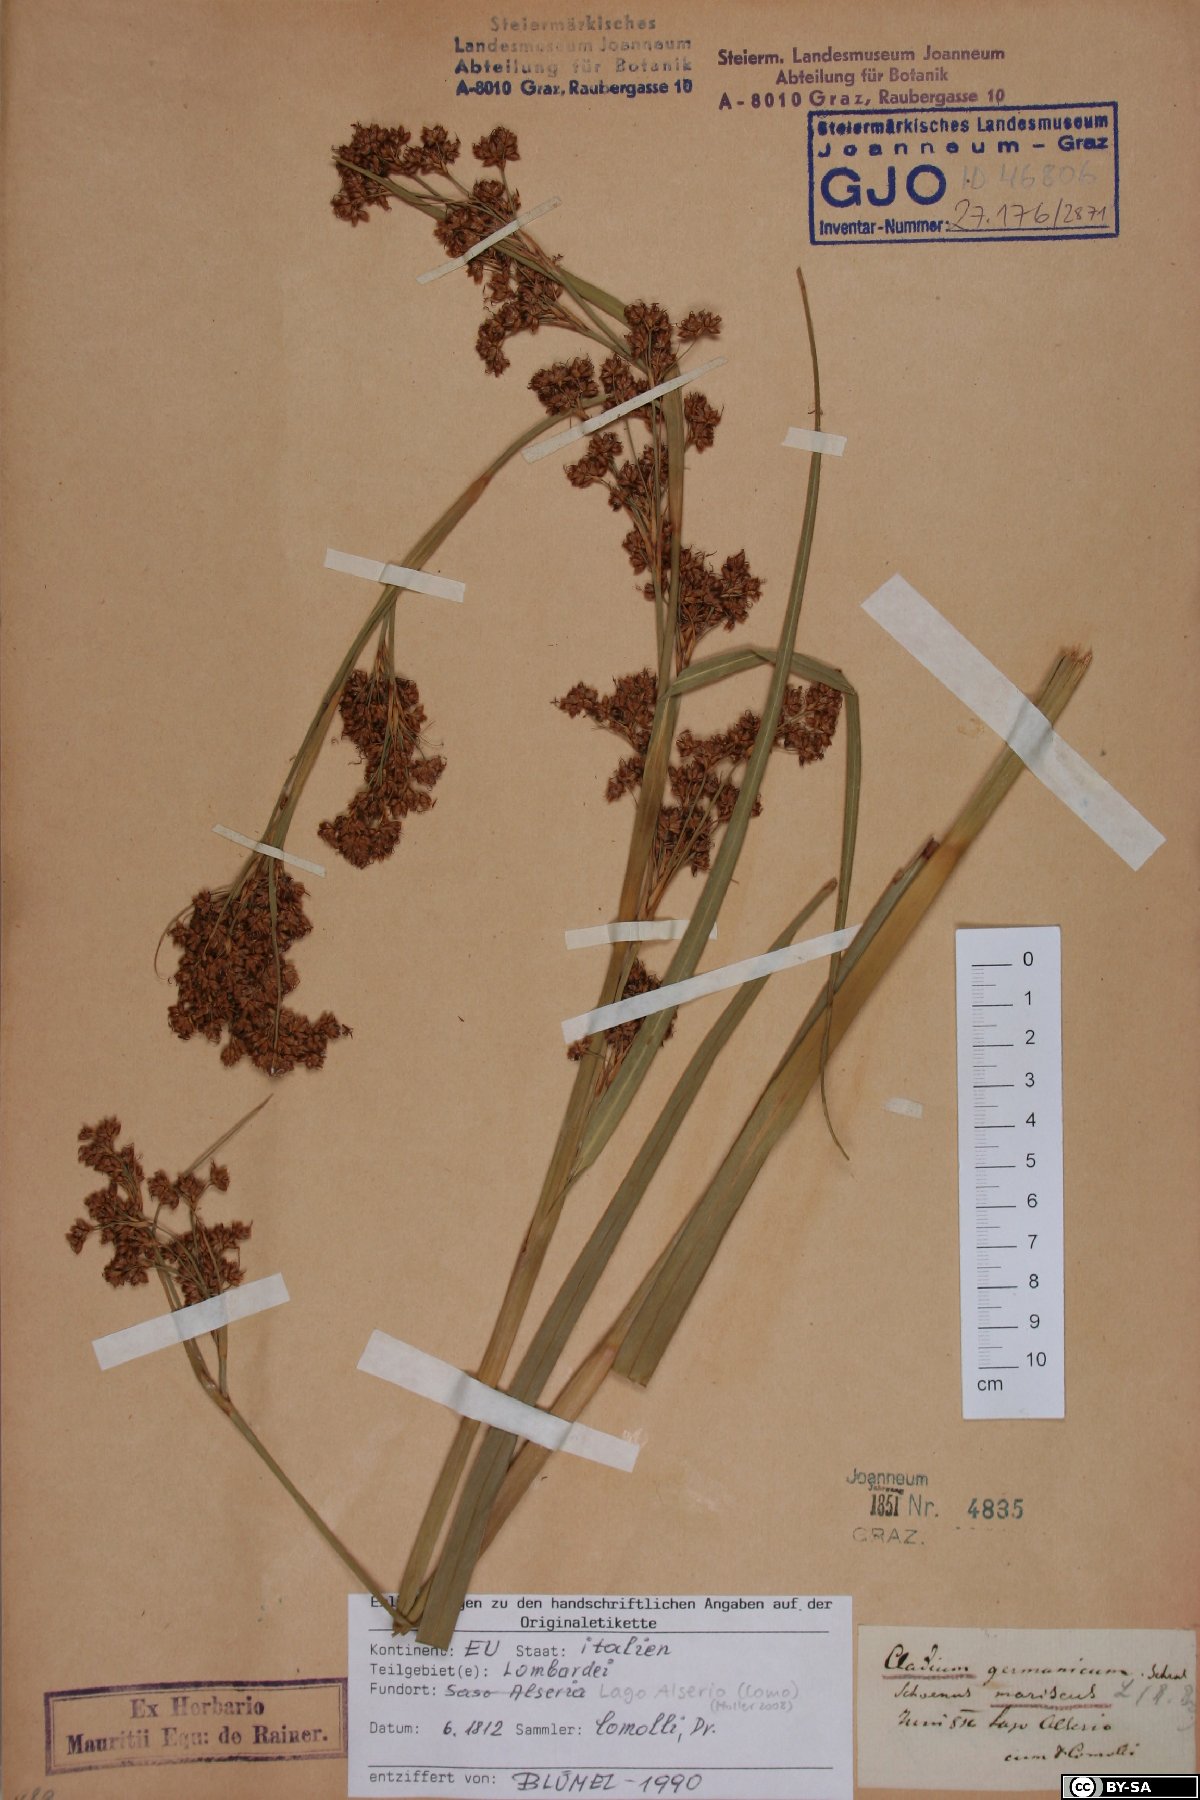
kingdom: Plantae
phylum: Tracheophyta
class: Liliopsida
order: Poales
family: Cyperaceae
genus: Cladium
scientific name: Cladium mariscus
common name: Great fen-sedge
